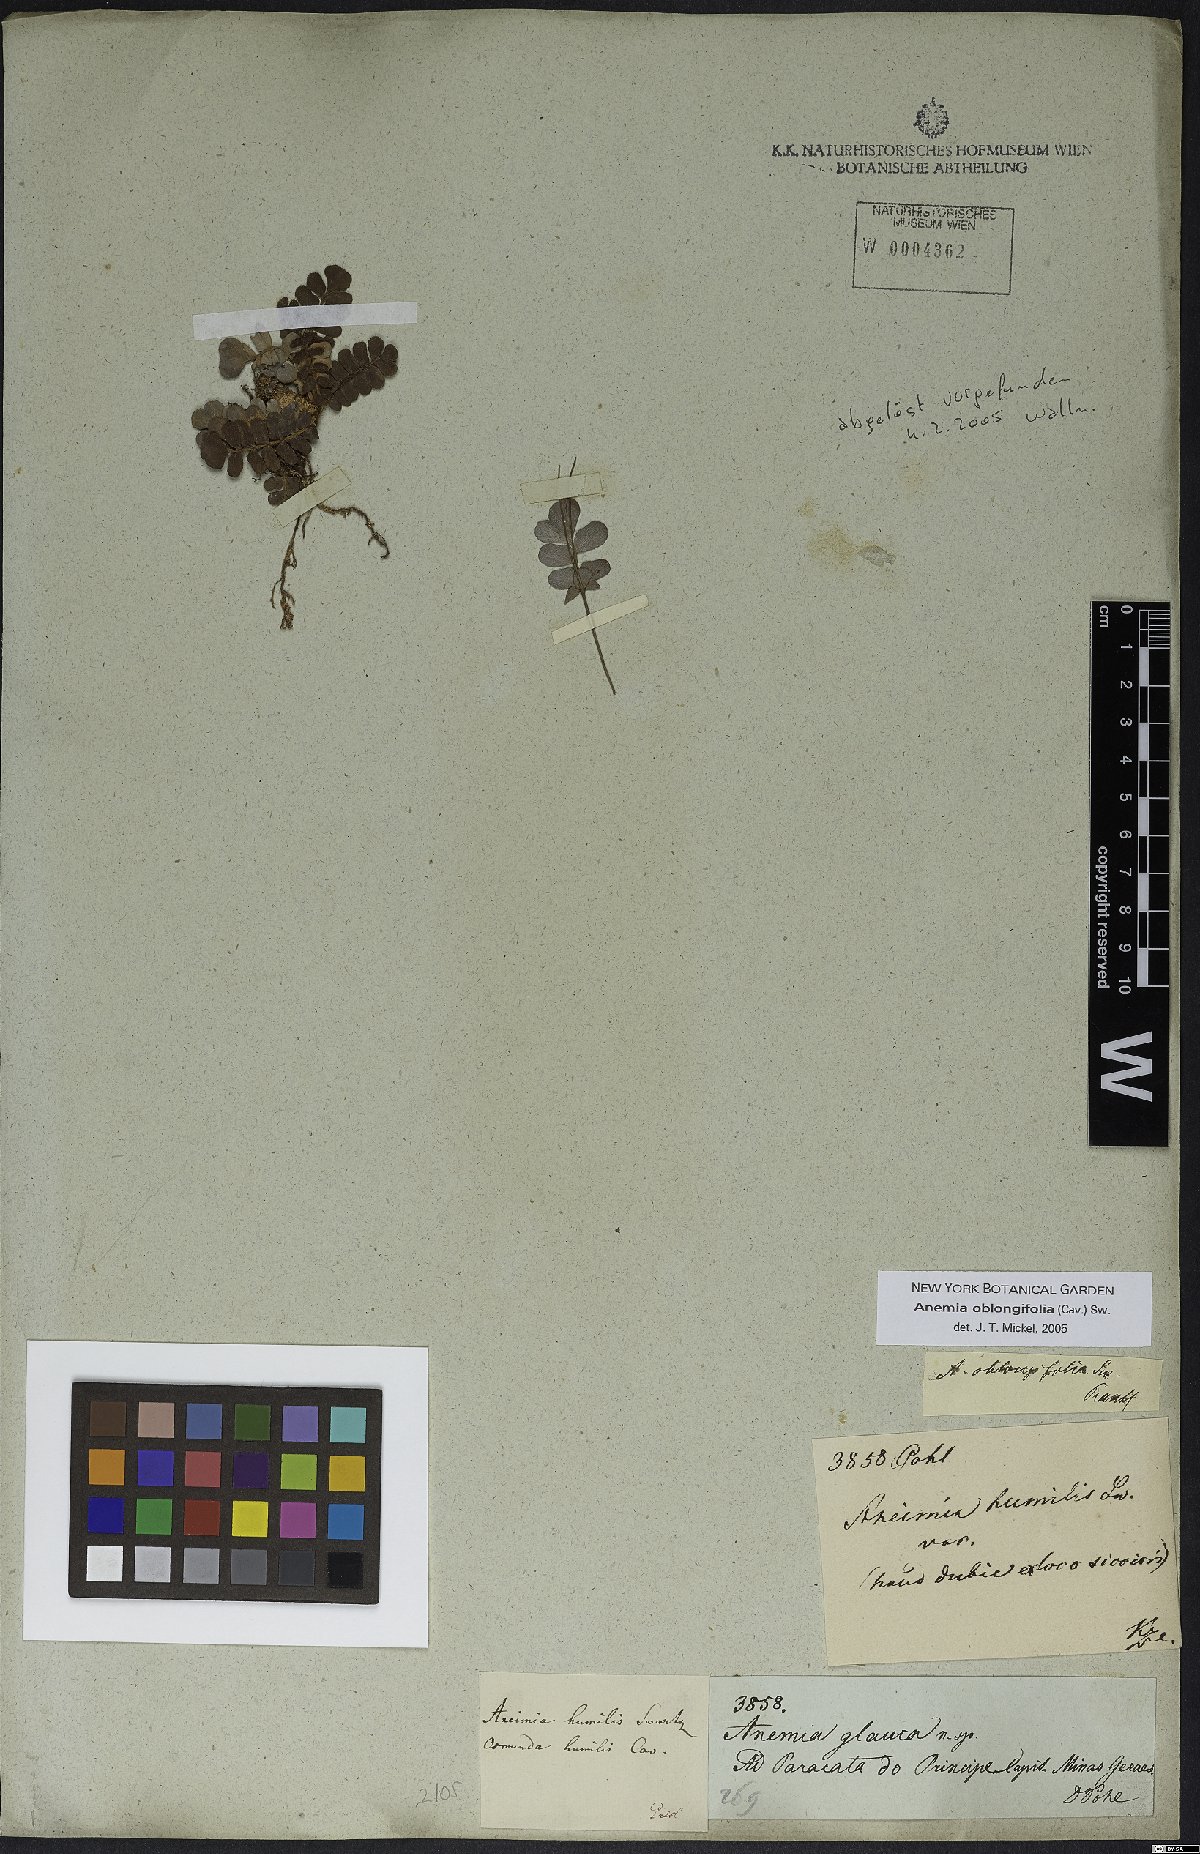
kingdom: Plantae
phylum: Tracheophyta
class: Polypodiopsida
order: Schizaeales
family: Anemiaceae
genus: Anemia
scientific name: Anemia oblongifolia
